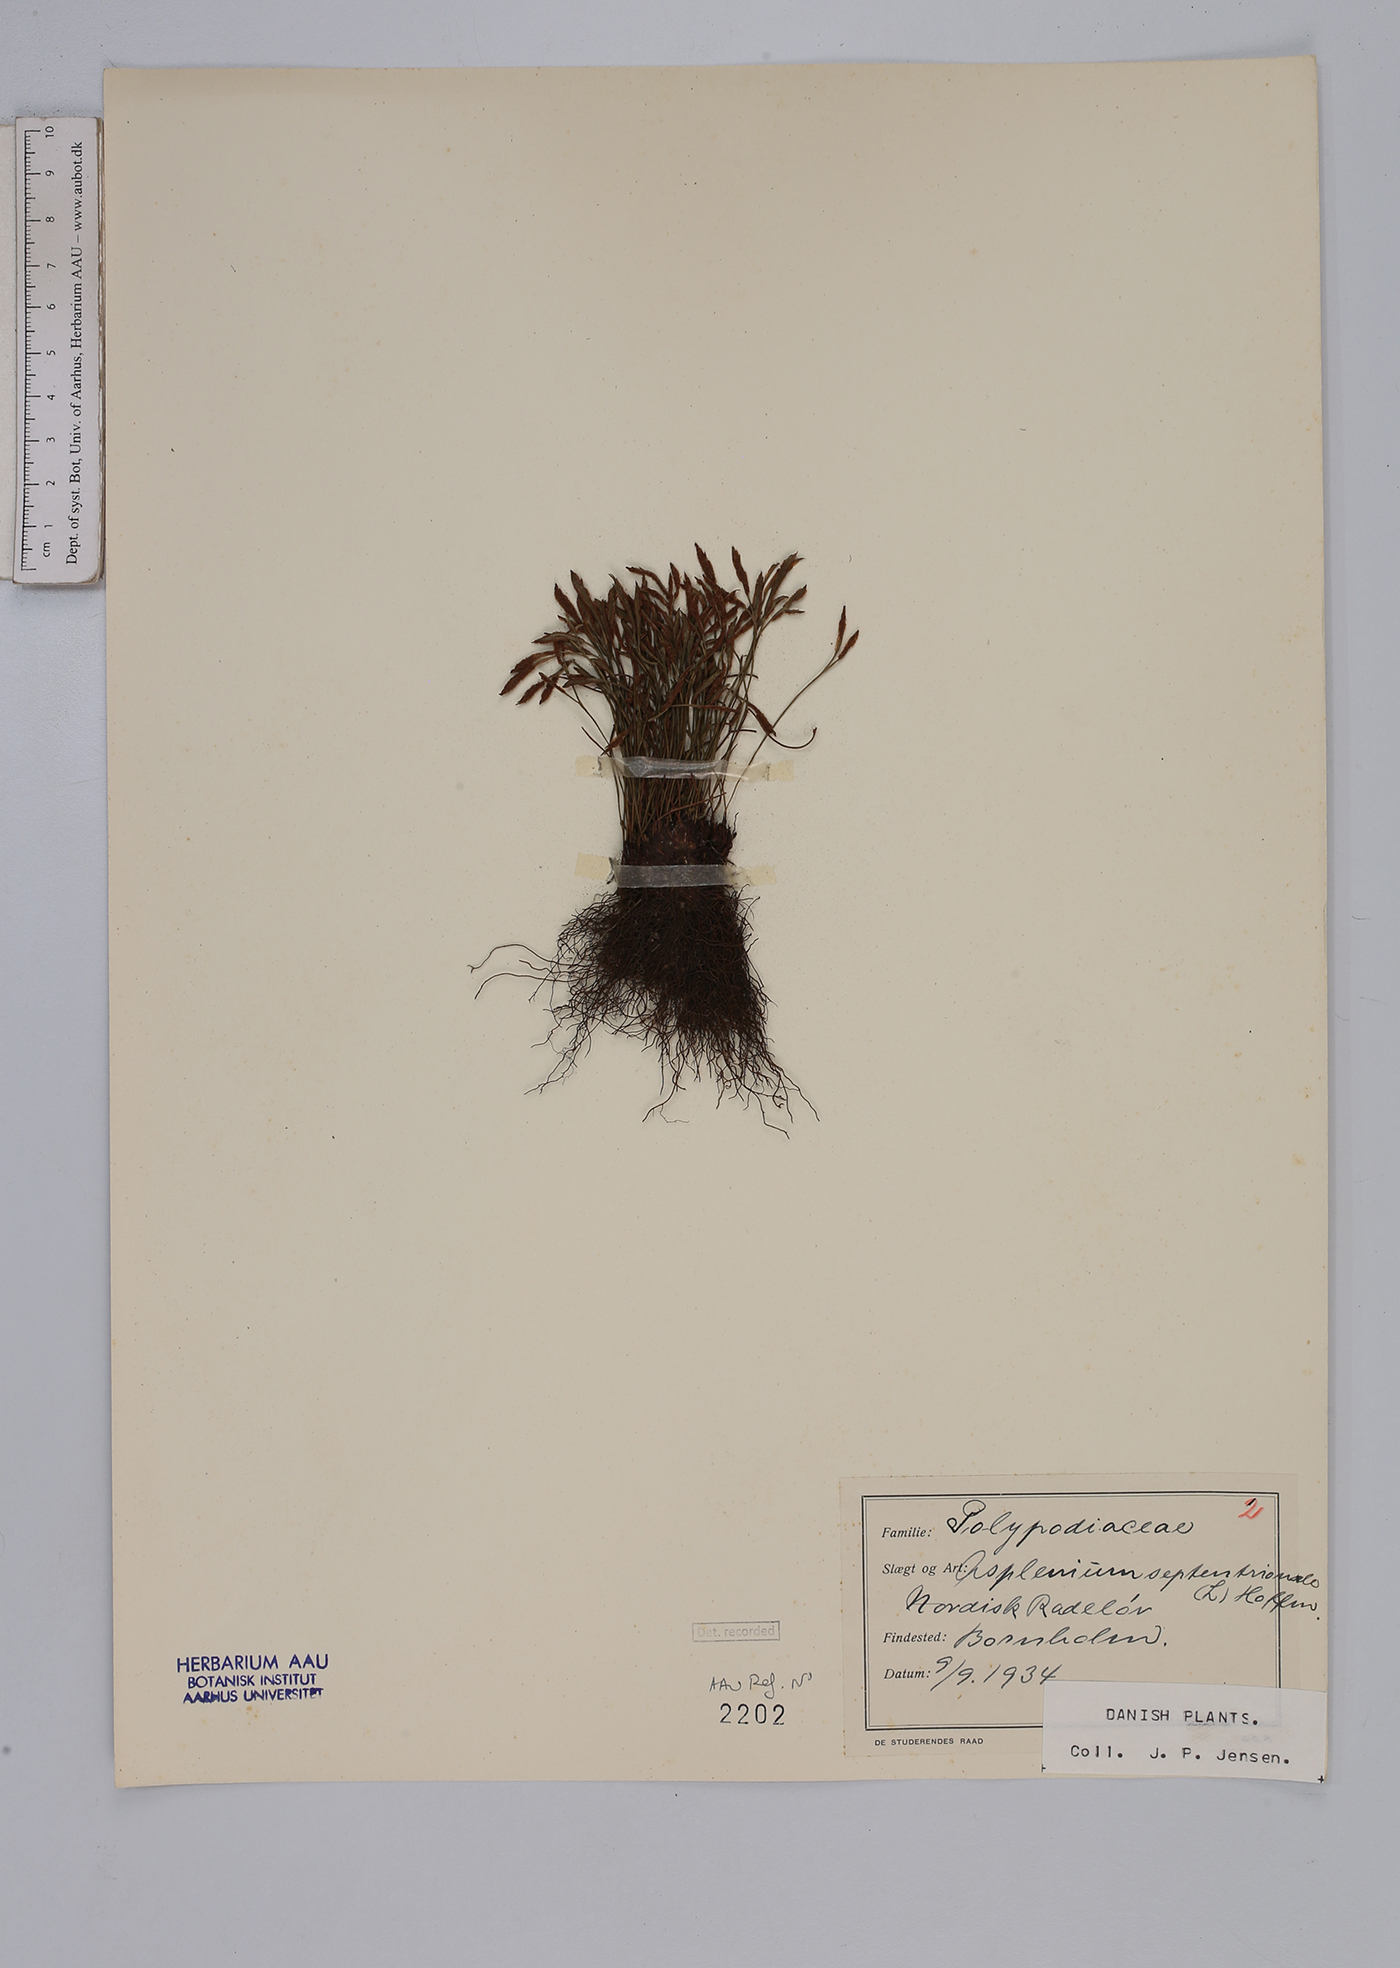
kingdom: Plantae
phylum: Tracheophyta
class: Polypodiopsida
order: Polypodiales
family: Aspleniaceae
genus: Asplenium
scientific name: Asplenium septentrionale
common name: Forked spleenwort
